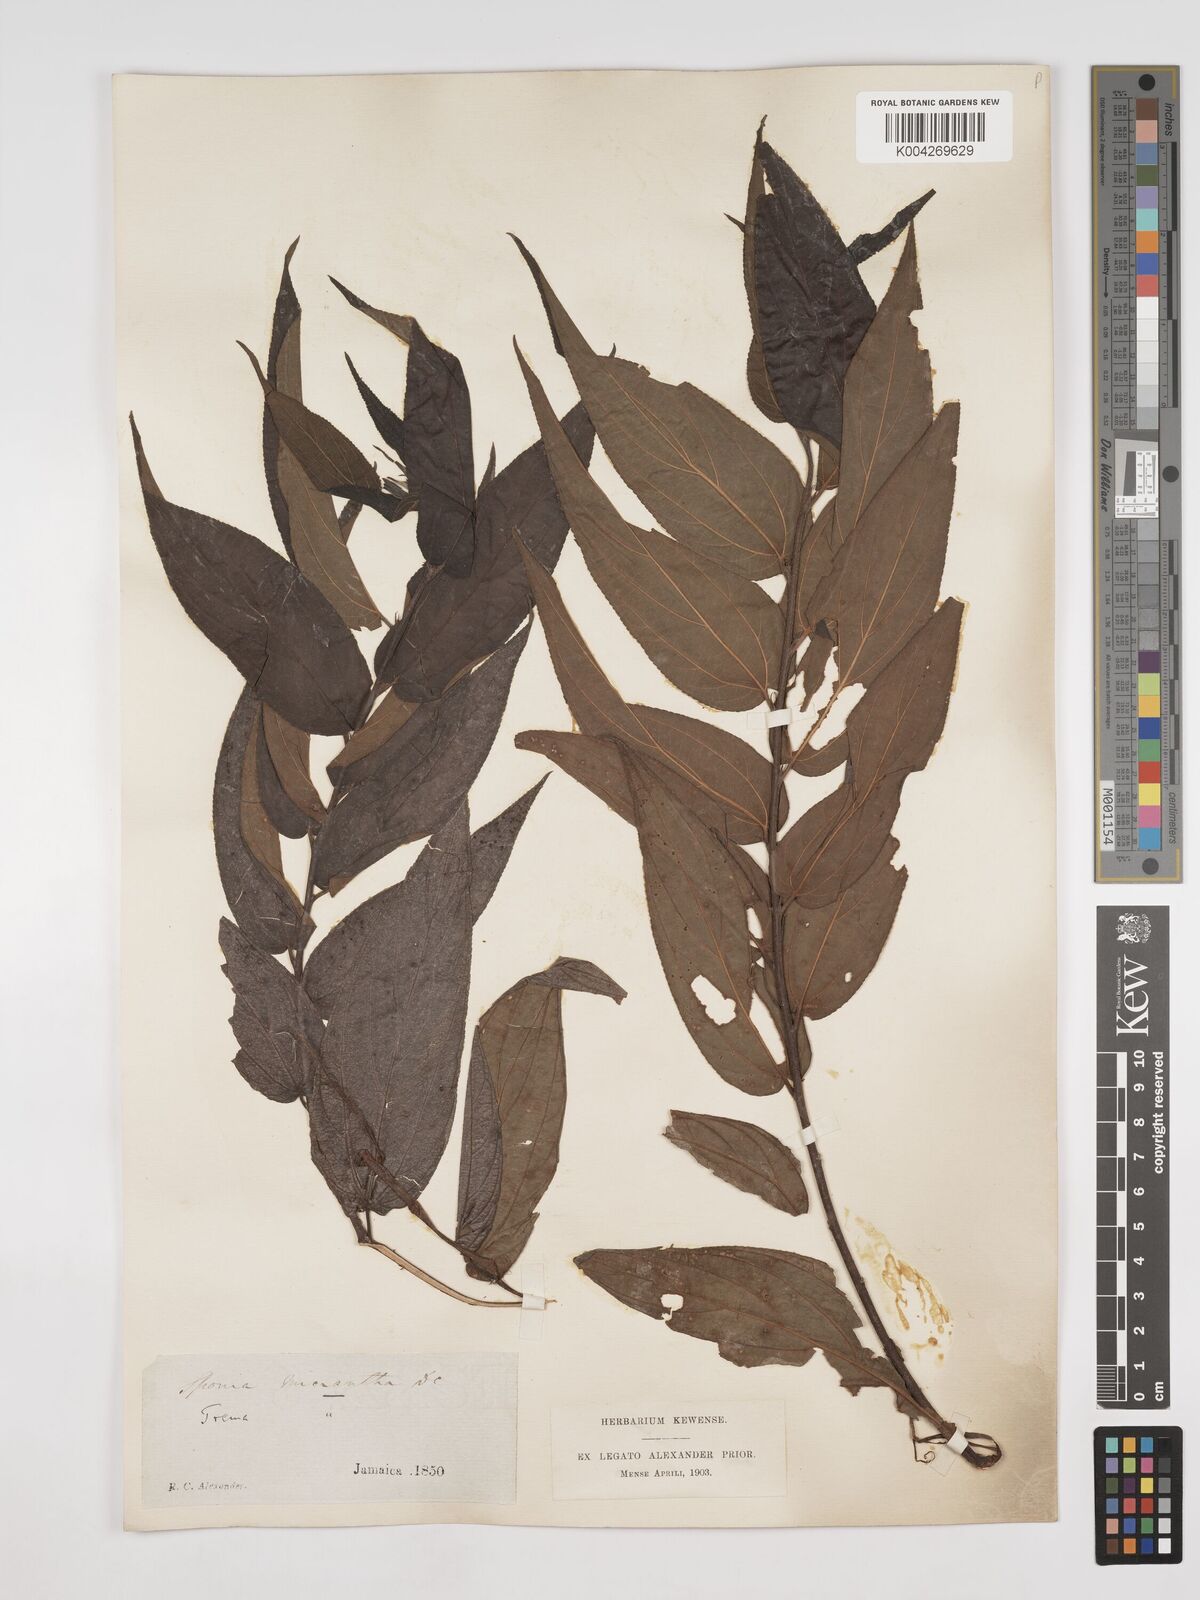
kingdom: Plantae
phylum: Tracheophyta
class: Magnoliopsida
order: Rosales
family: Cannabaceae
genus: Trema
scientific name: Trema micranthum
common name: Jamaican nettletree
